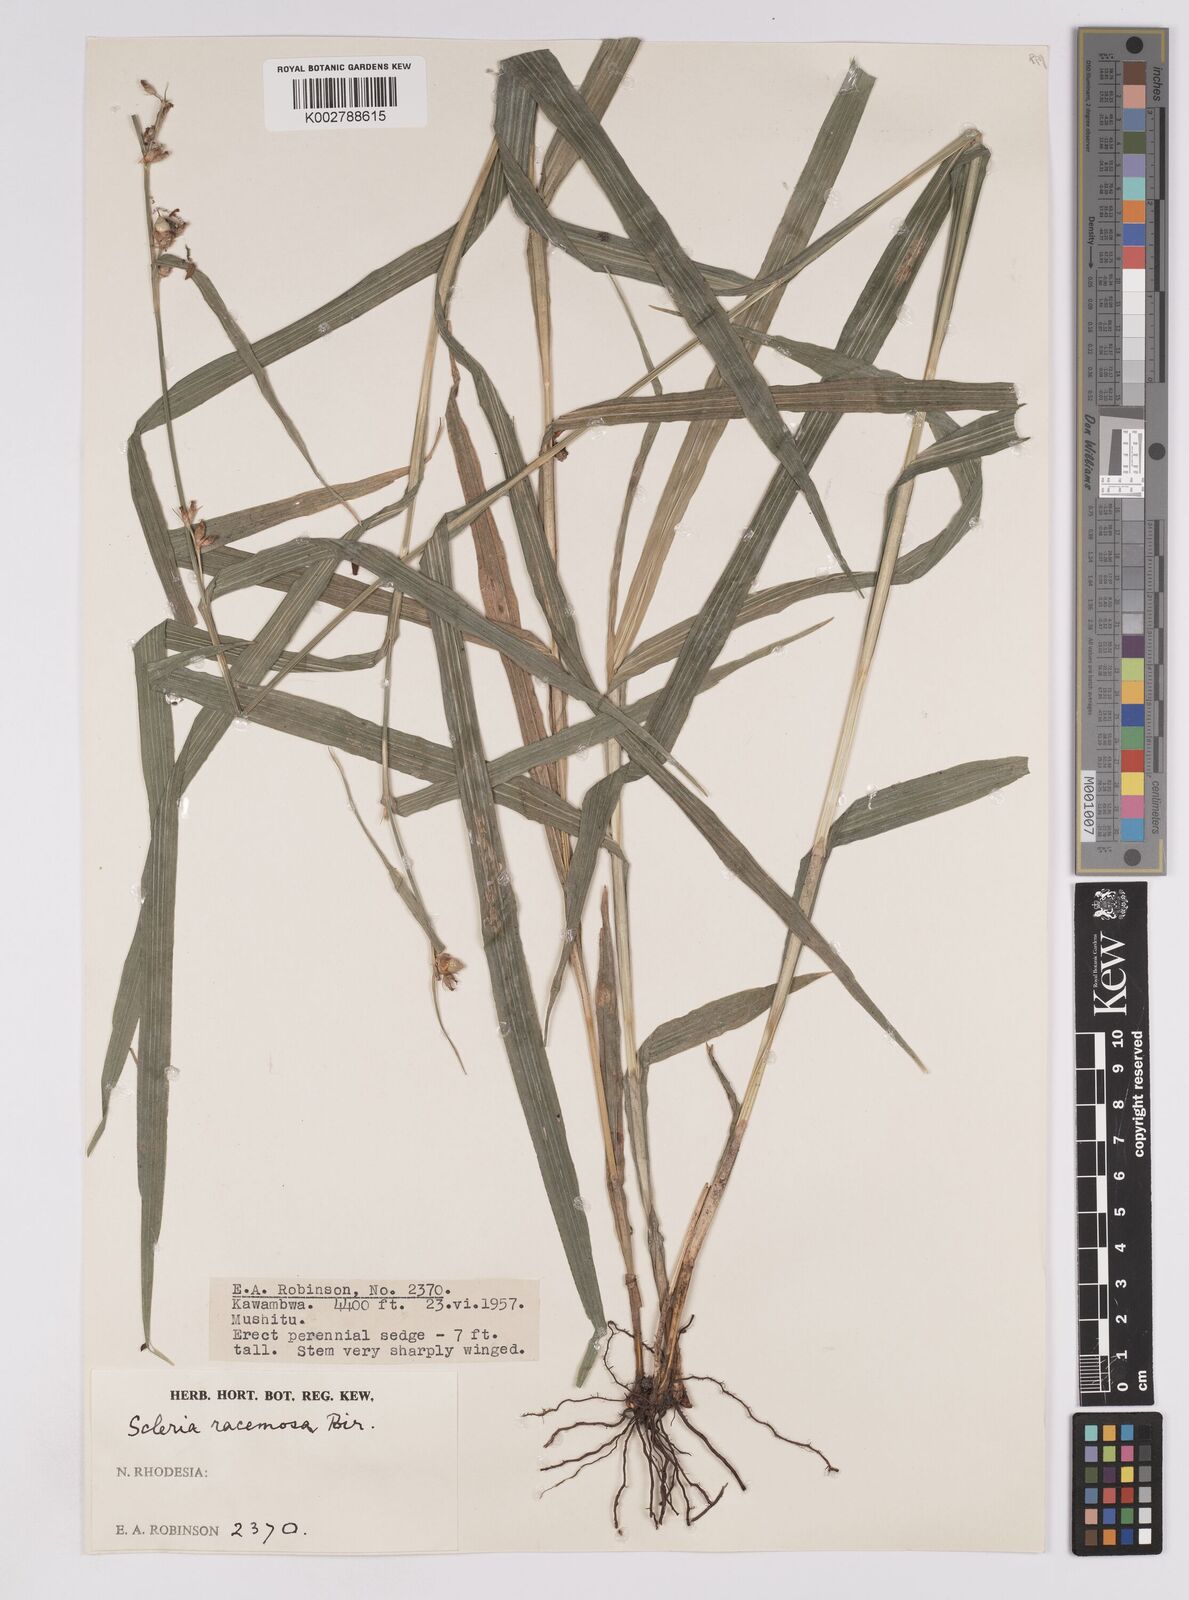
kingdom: Plantae
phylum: Tracheophyta
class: Liliopsida
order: Poales
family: Cyperaceae
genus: Scleria
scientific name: Scleria racemosa
